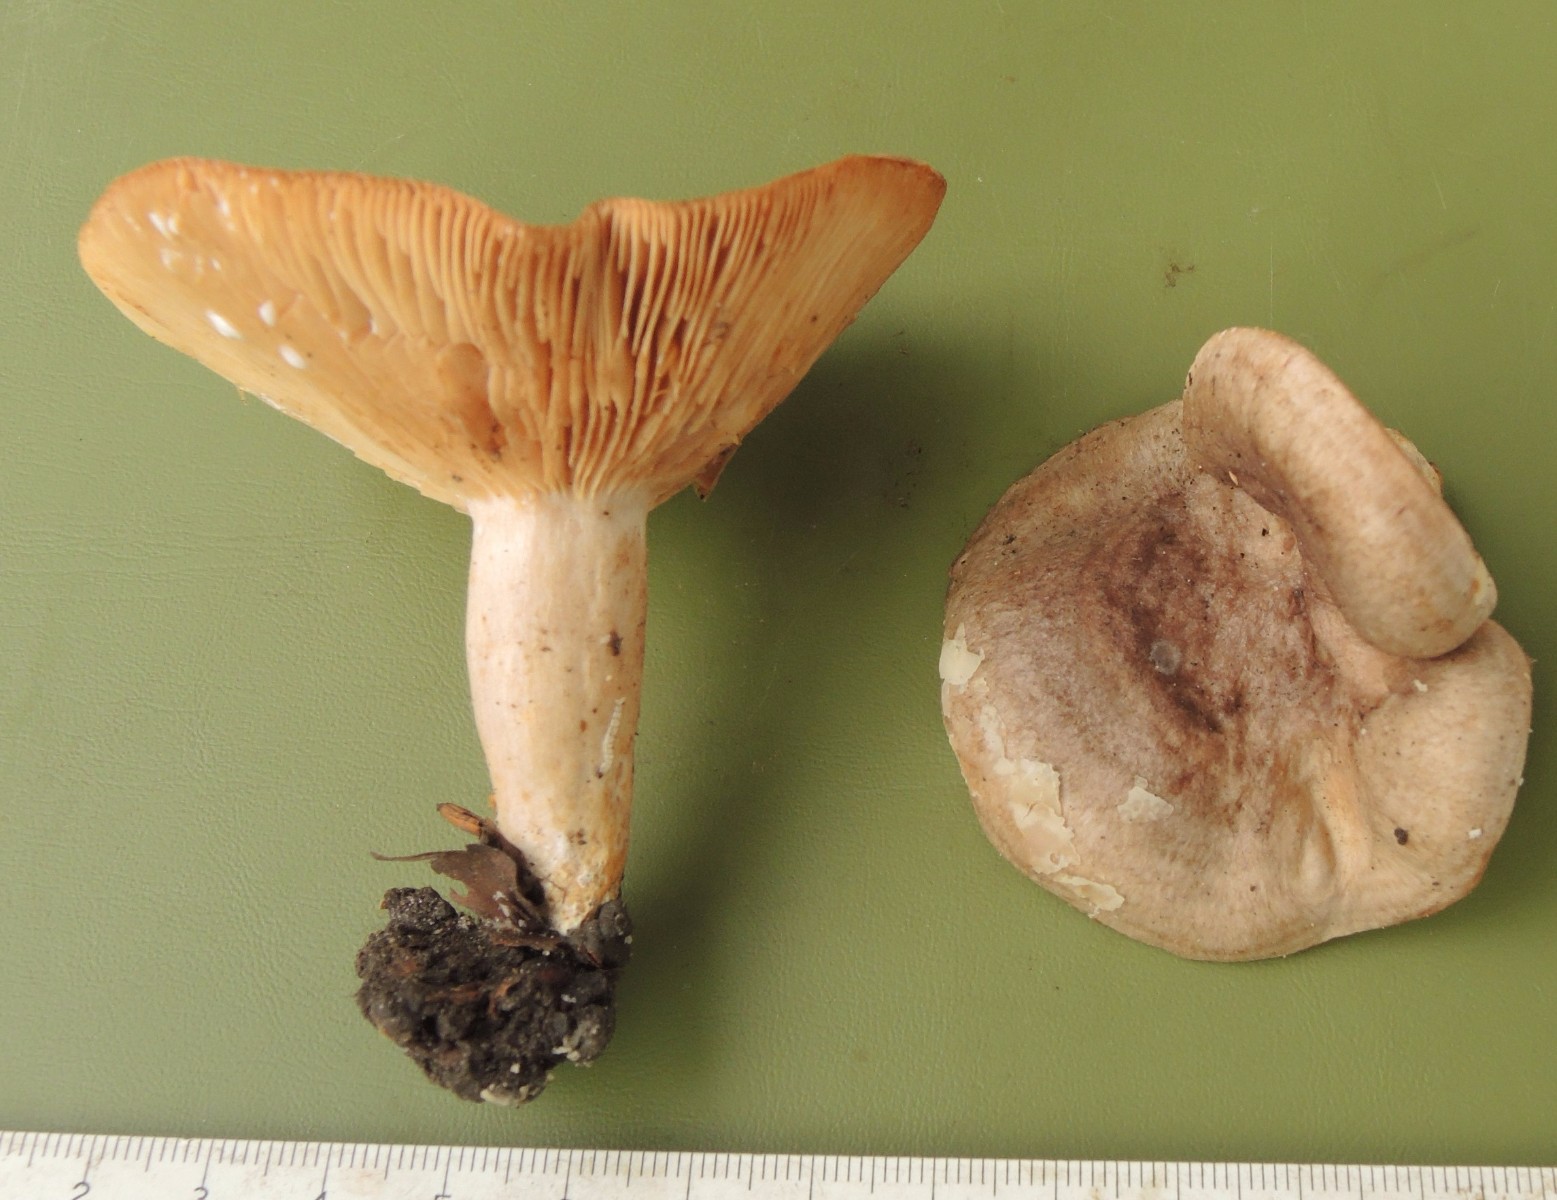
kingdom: Fungi
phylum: Basidiomycota
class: Agaricomycetes
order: Russulales
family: Russulaceae
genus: Lactarius
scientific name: Lactarius circellatus
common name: avnbøg-mælkehat
